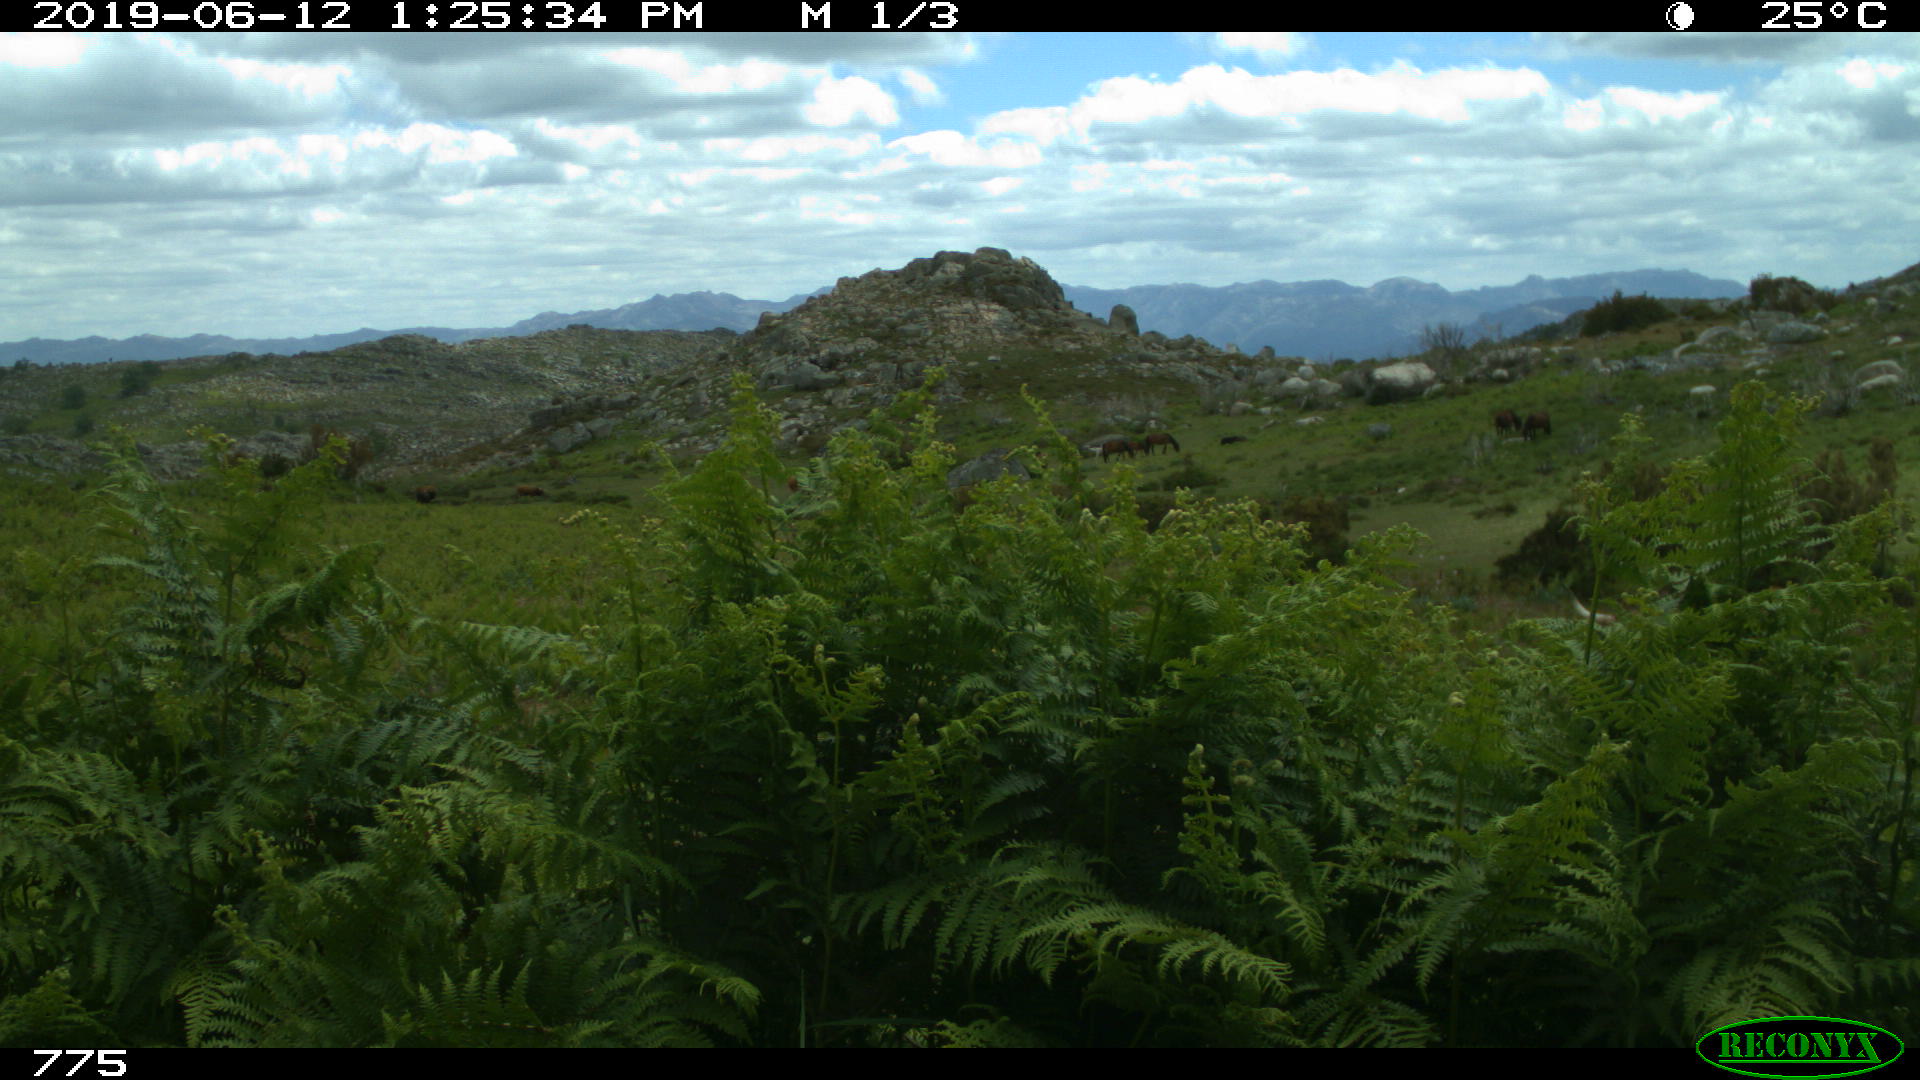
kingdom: Animalia
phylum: Chordata
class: Mammalia
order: Artiodactyla
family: Bovidae
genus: Bos
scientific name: Bos taurus
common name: Domesticated cattle
